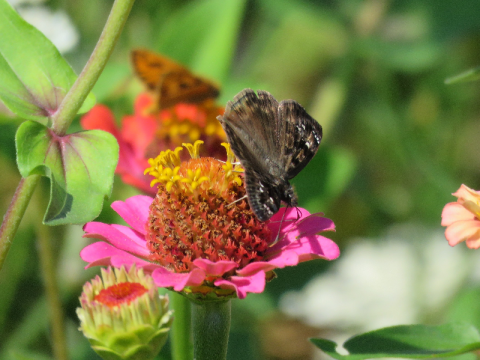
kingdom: Animalia
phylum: Arthropoda
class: Insecta
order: Lepidoptera
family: Hesperiidae
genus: Gesta
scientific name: Gesta
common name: Horace's Duskywing
